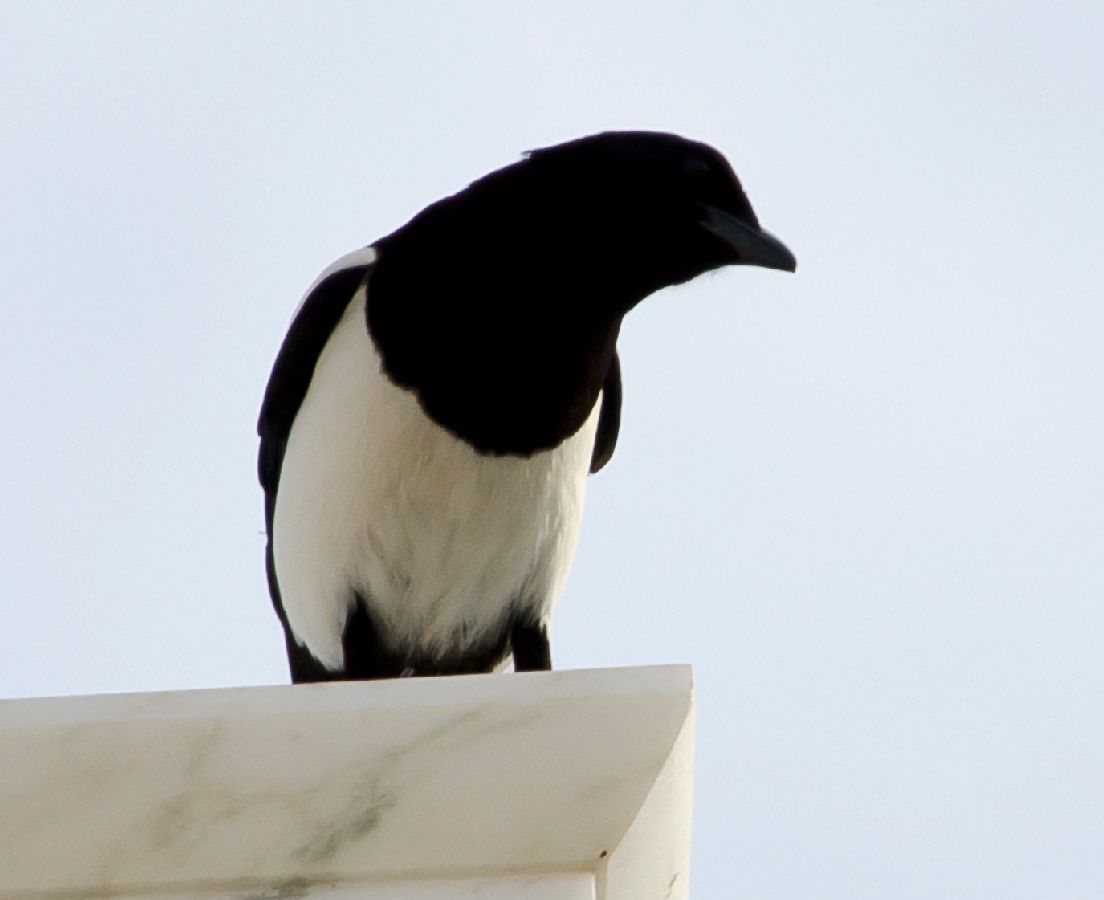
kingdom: Animalia
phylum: Chordata
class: Aves
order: Passeriformes
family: Corvidae
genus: Pica
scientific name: Pica pica
